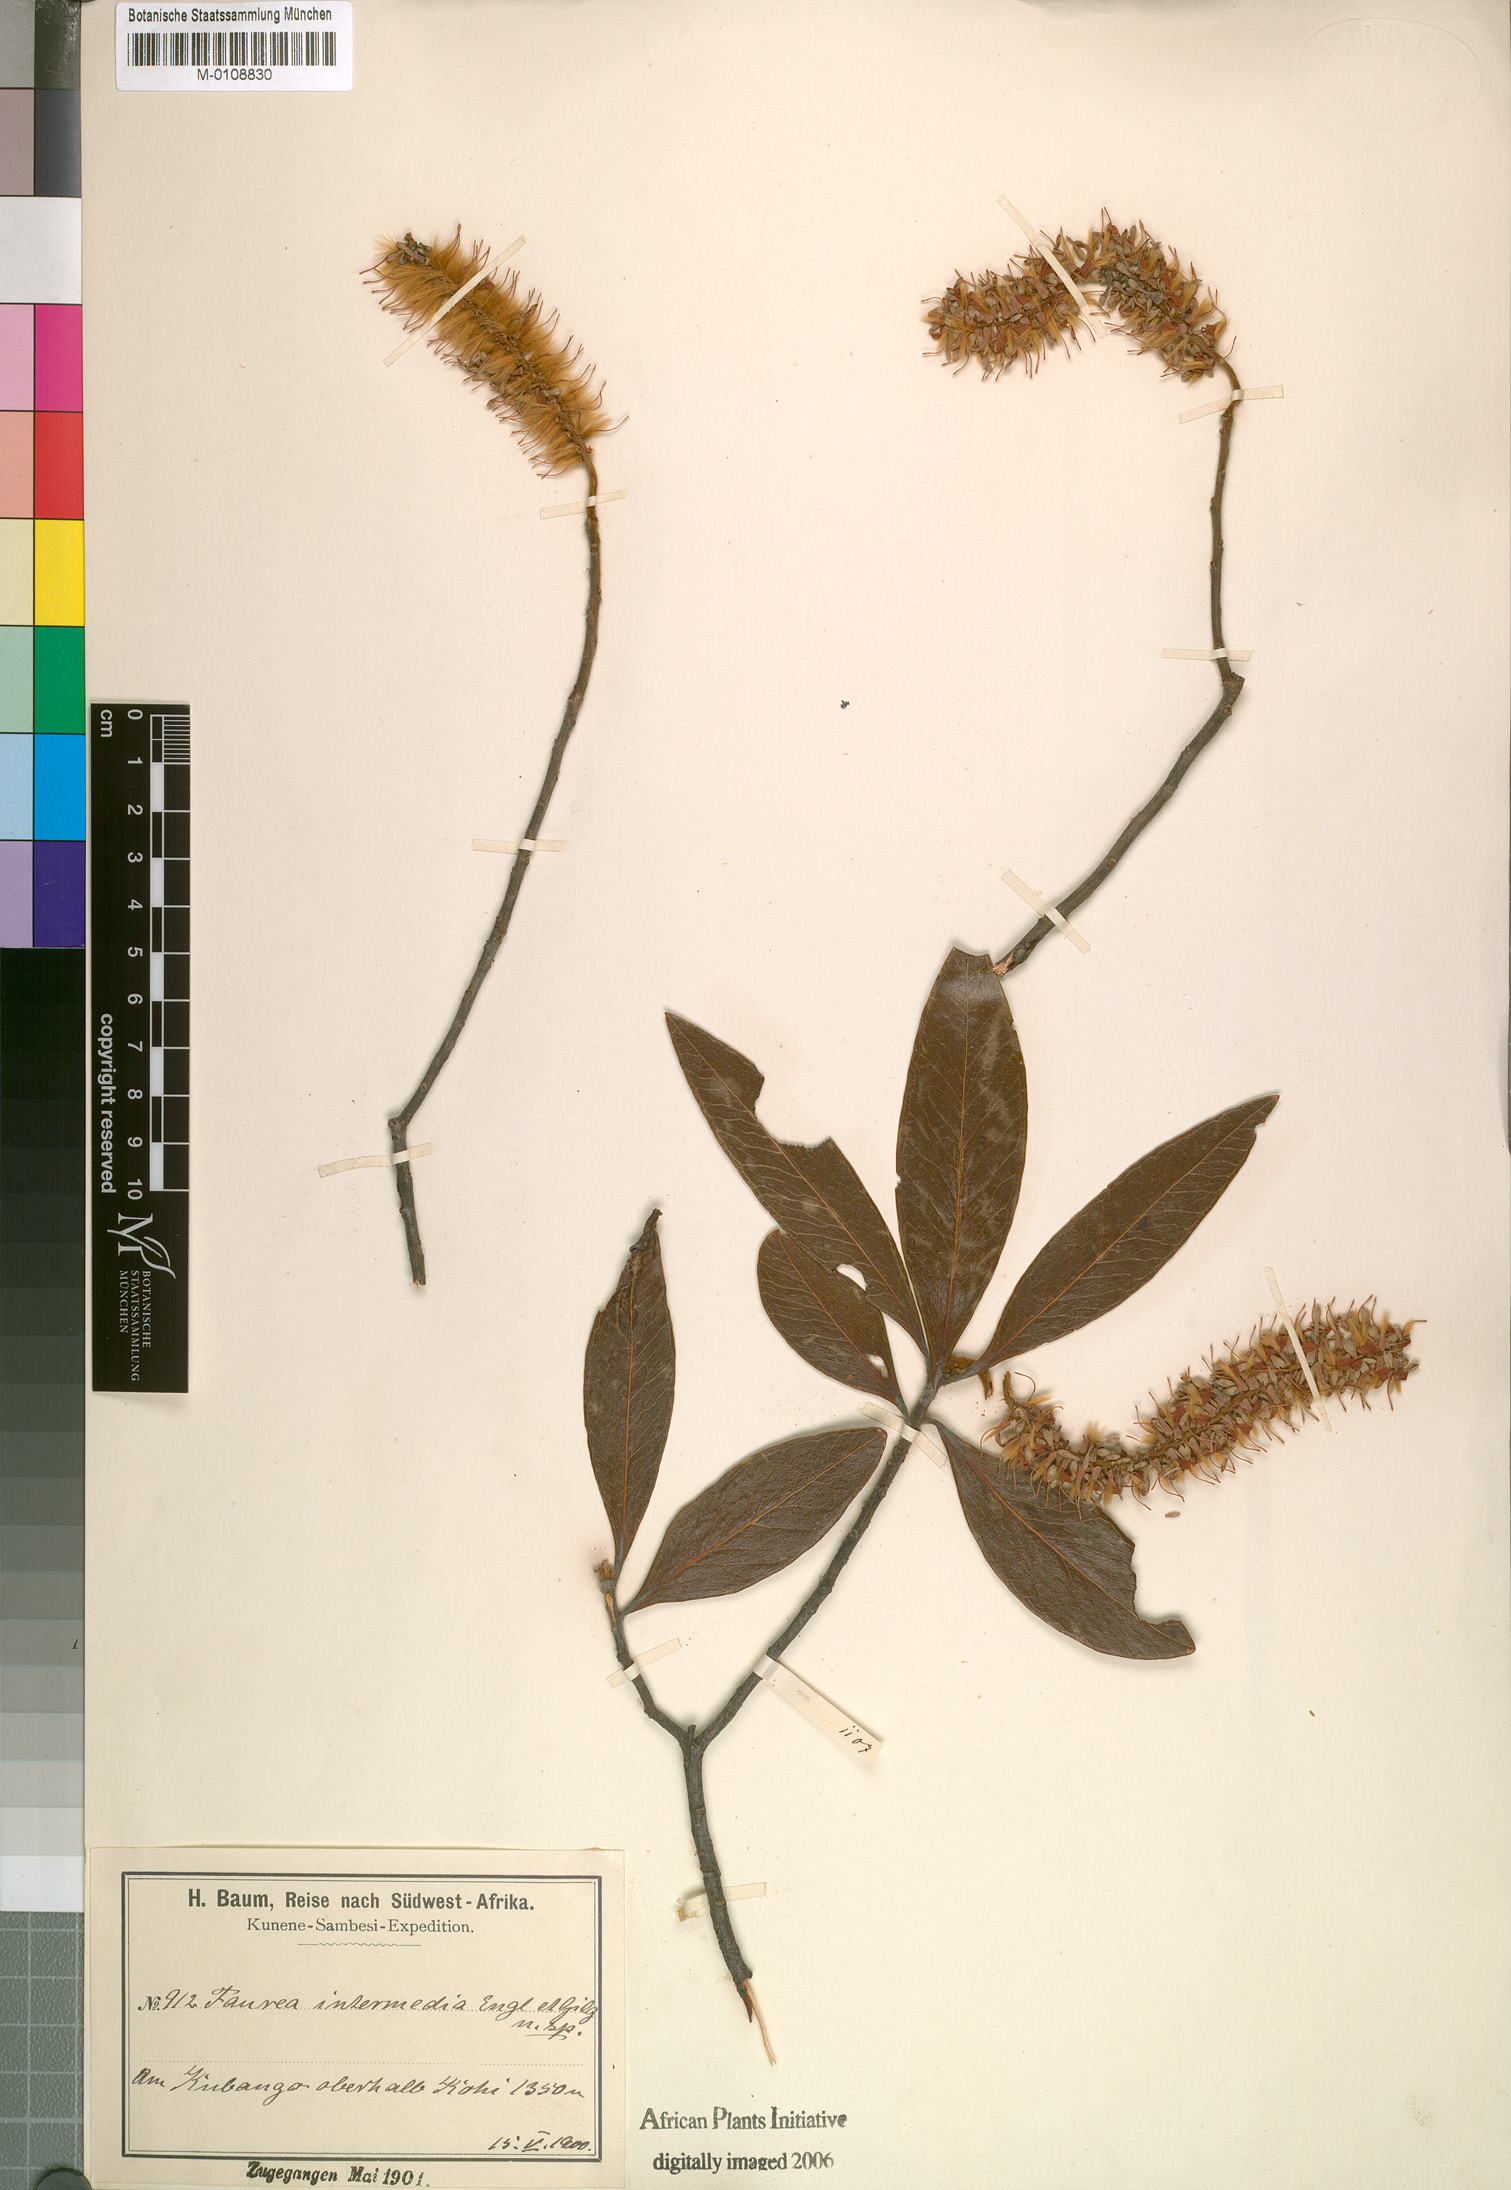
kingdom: Plantae
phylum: Tracheophyta
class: Magnoliopsida
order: Proteales
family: Proteaceae
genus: Faurea
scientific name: Faurea intermedia
